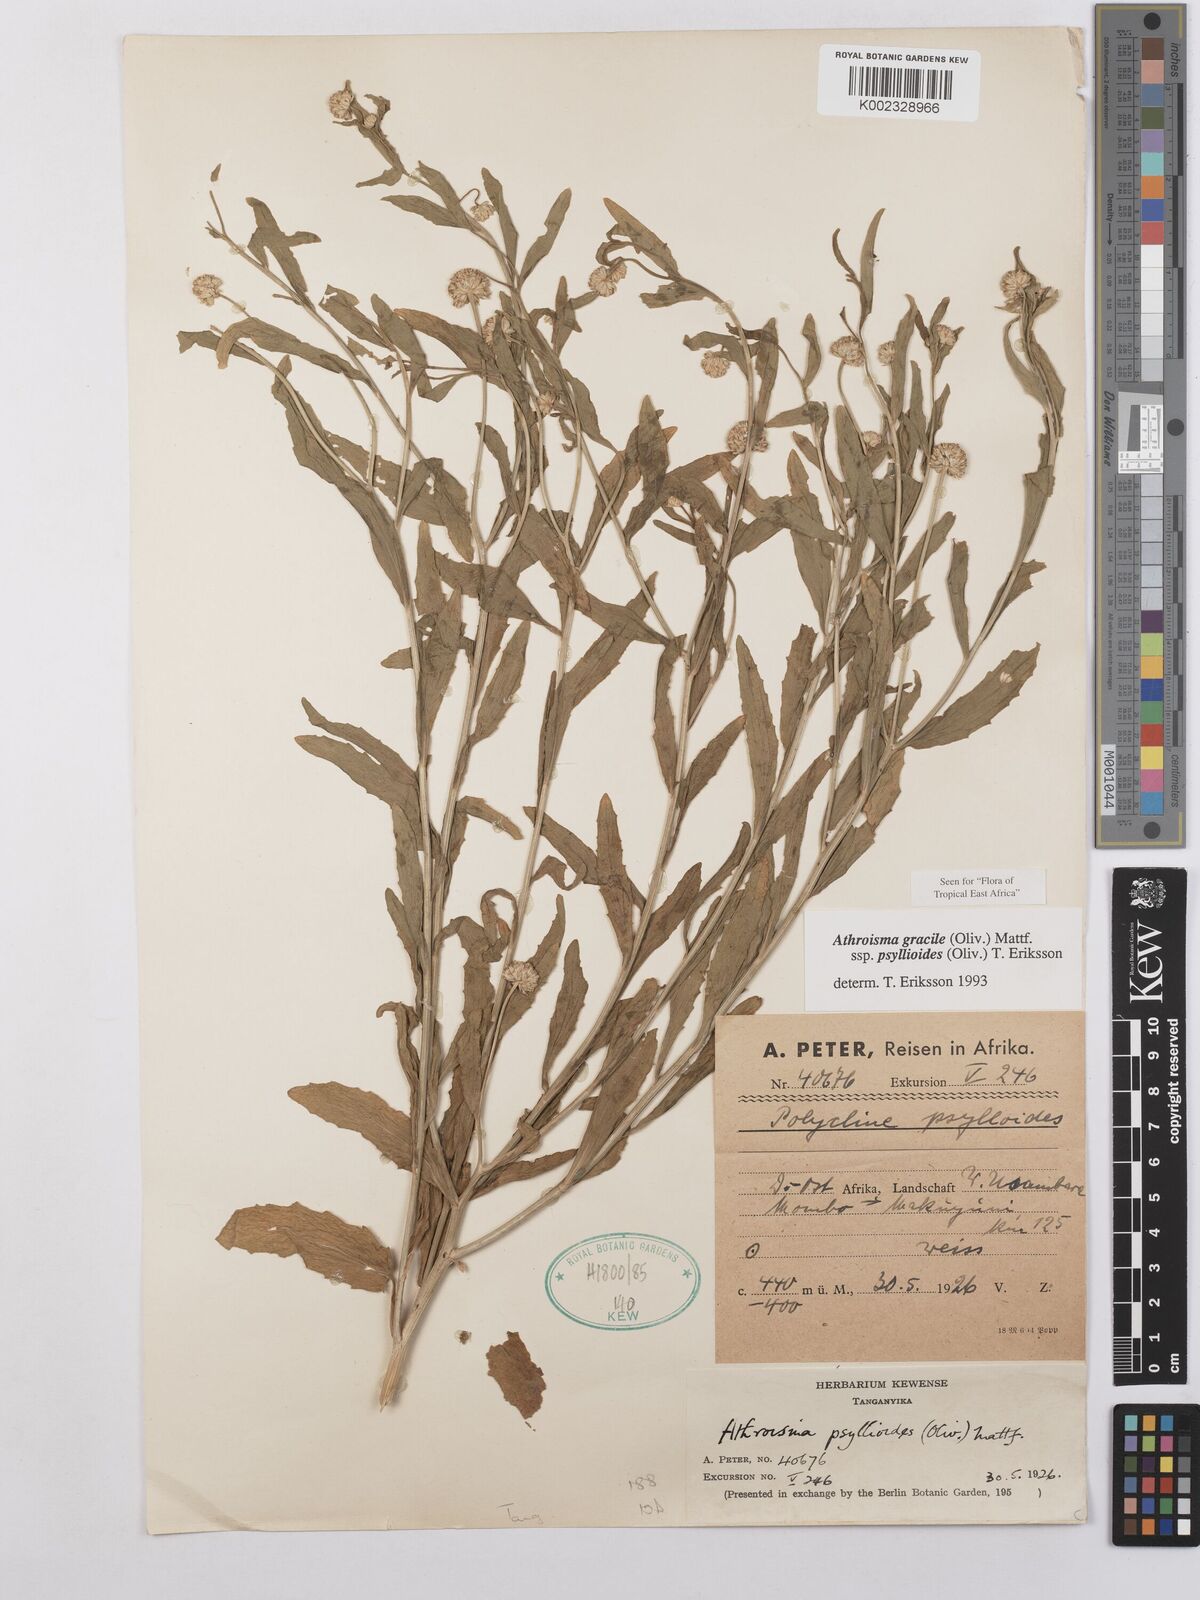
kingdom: Plantae
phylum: Tracheophyta
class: Magnoliopsida
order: Asterales
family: Asteraceae
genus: Athroisma
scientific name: Athroisma gracile
